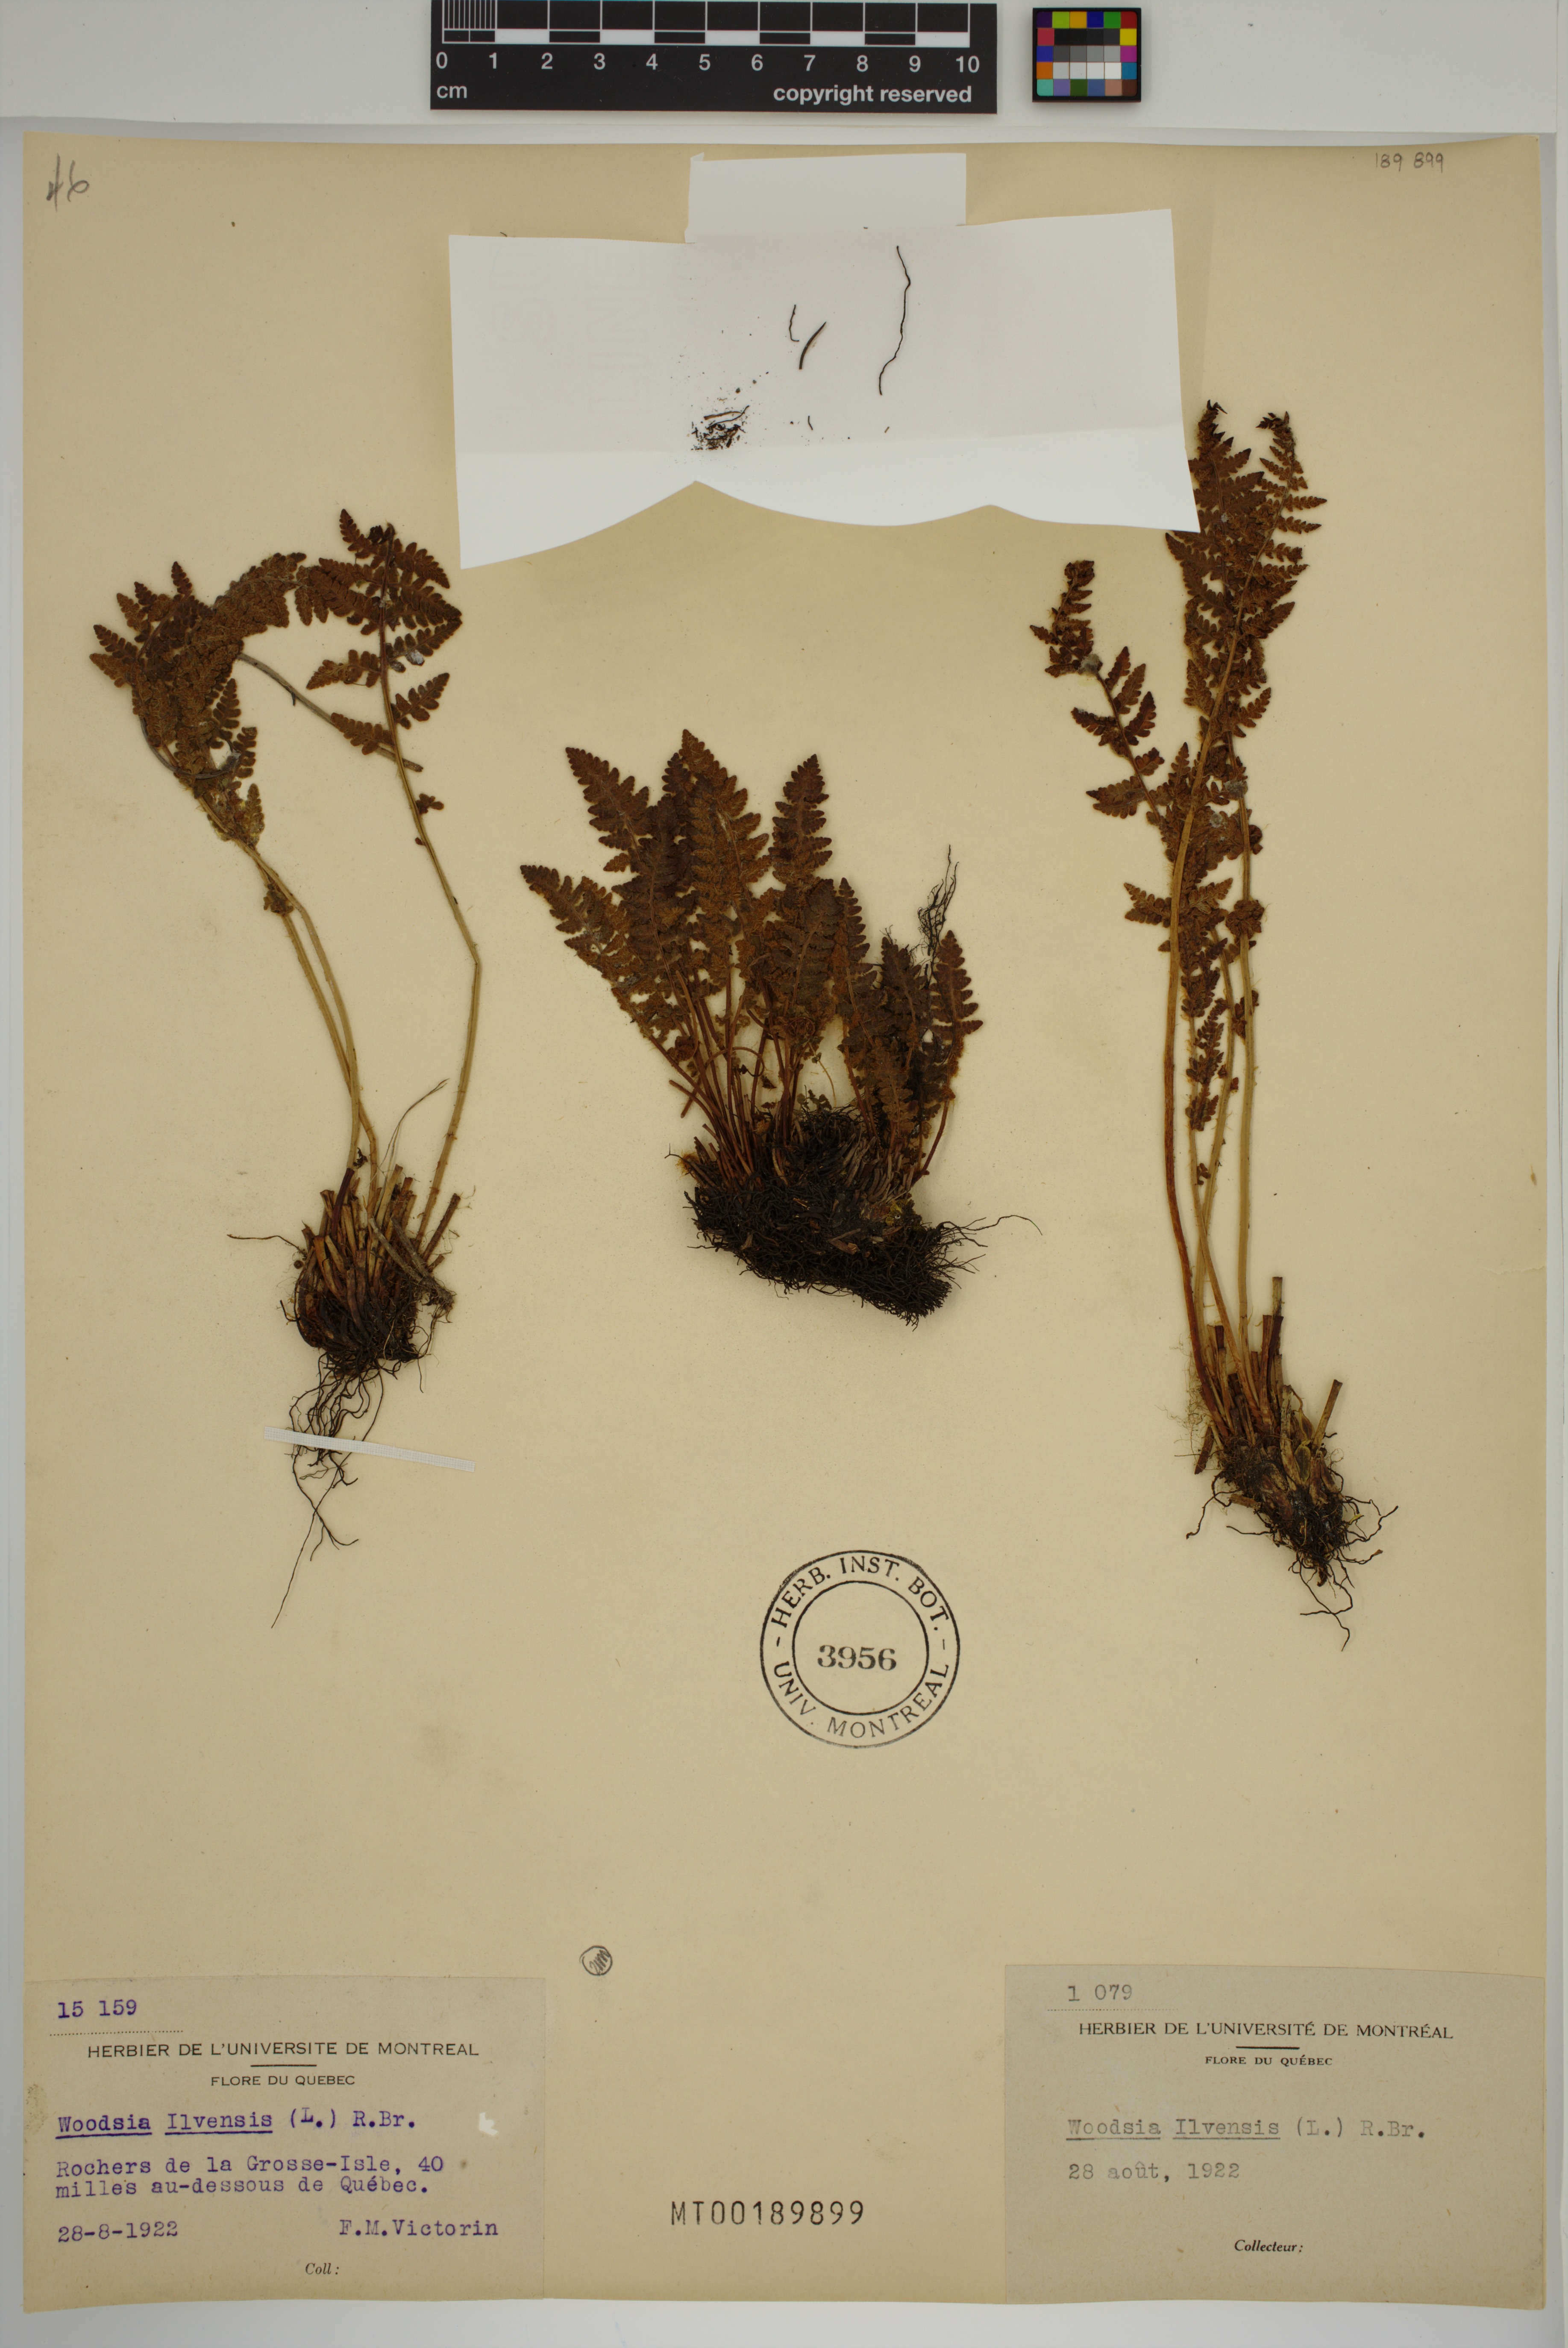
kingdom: Plantae
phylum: Tracheophyta
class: Polypodiopsida
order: Polypodiales
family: Woodsiaceae
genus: Woodsia
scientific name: Woodsia ilvensis
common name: Fragrant woodsia
